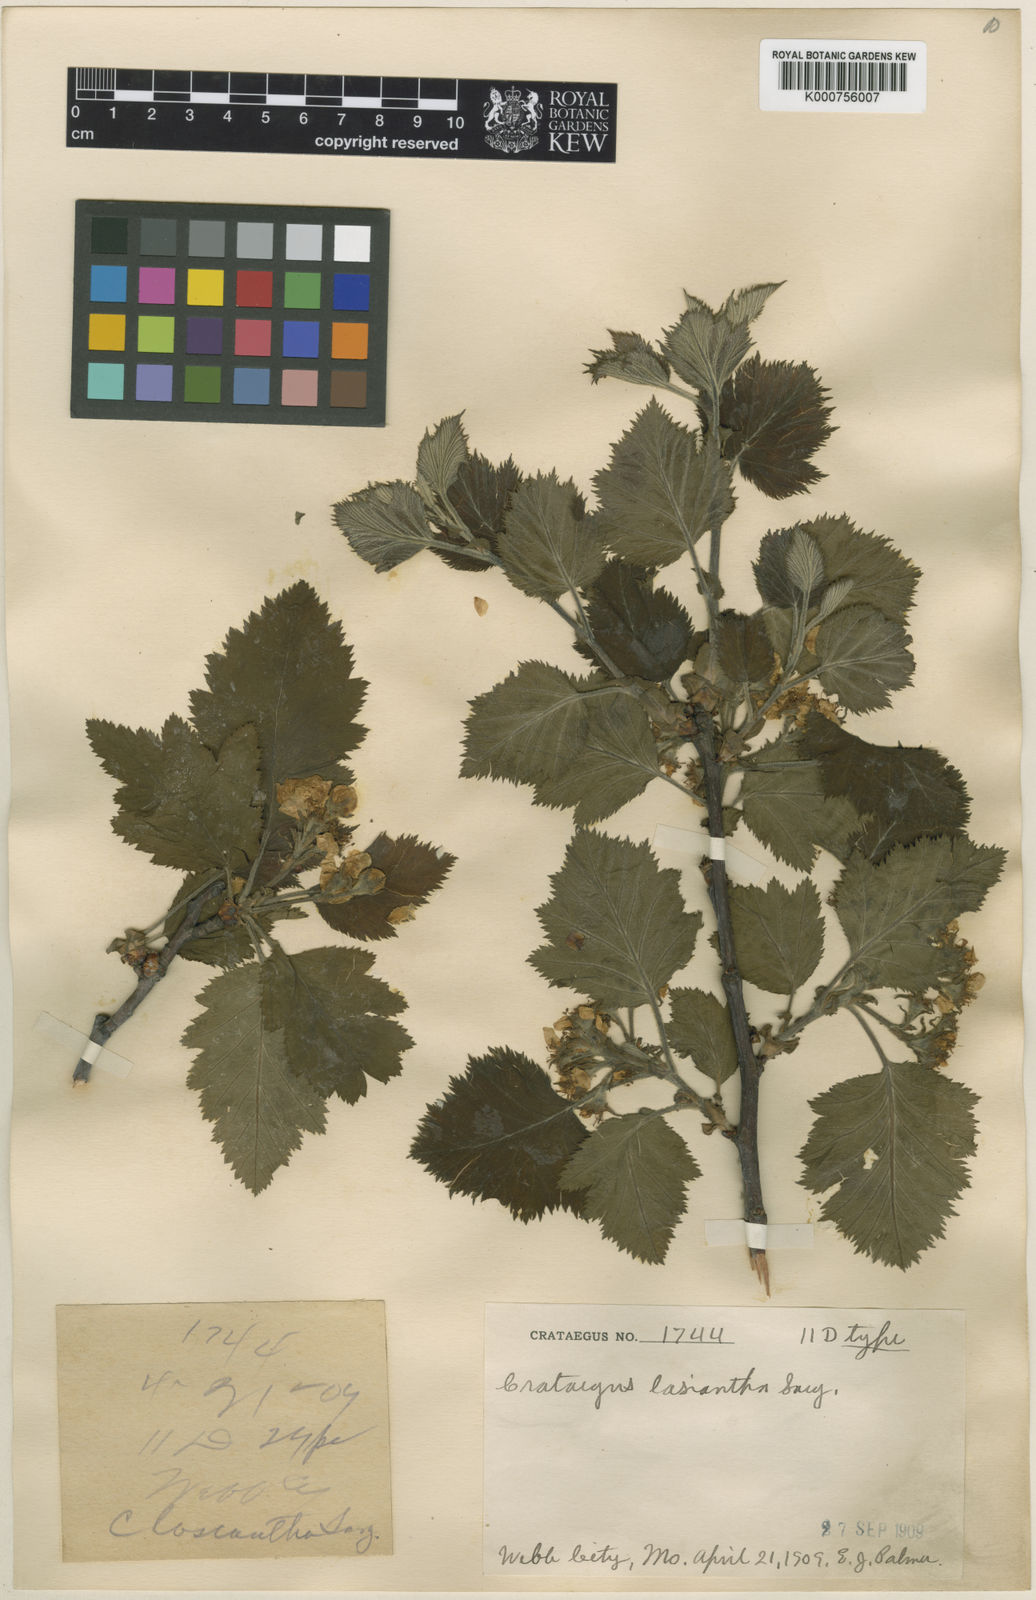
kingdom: Plantae
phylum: Tracheophyta
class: Magnoliopsida
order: Rosales
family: Rosaceae
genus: Crataegus
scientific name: Crataegus lasiantha
